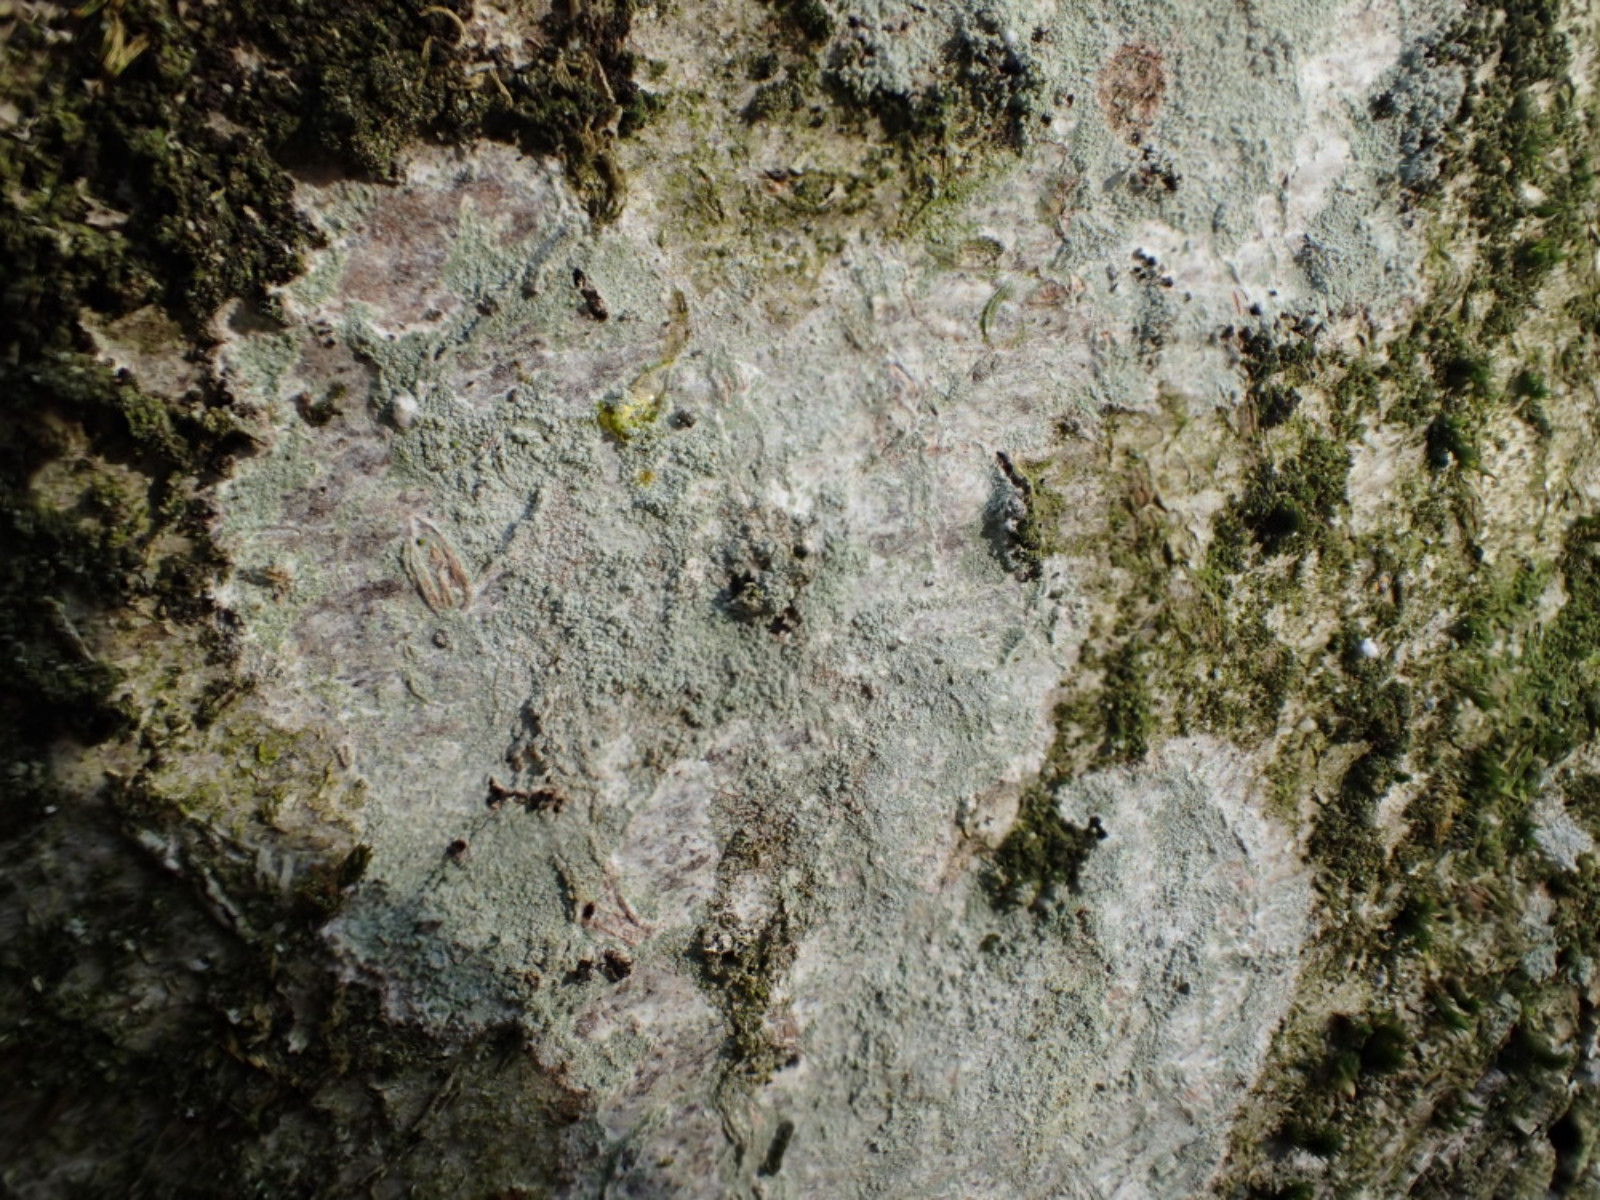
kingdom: Fungi
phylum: Ascomycota
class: Lecanoromycetes
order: Ostropales
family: Phlyctidaceae
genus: Phlyctis
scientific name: Phlyctis argena
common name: almindelig sølvlav
